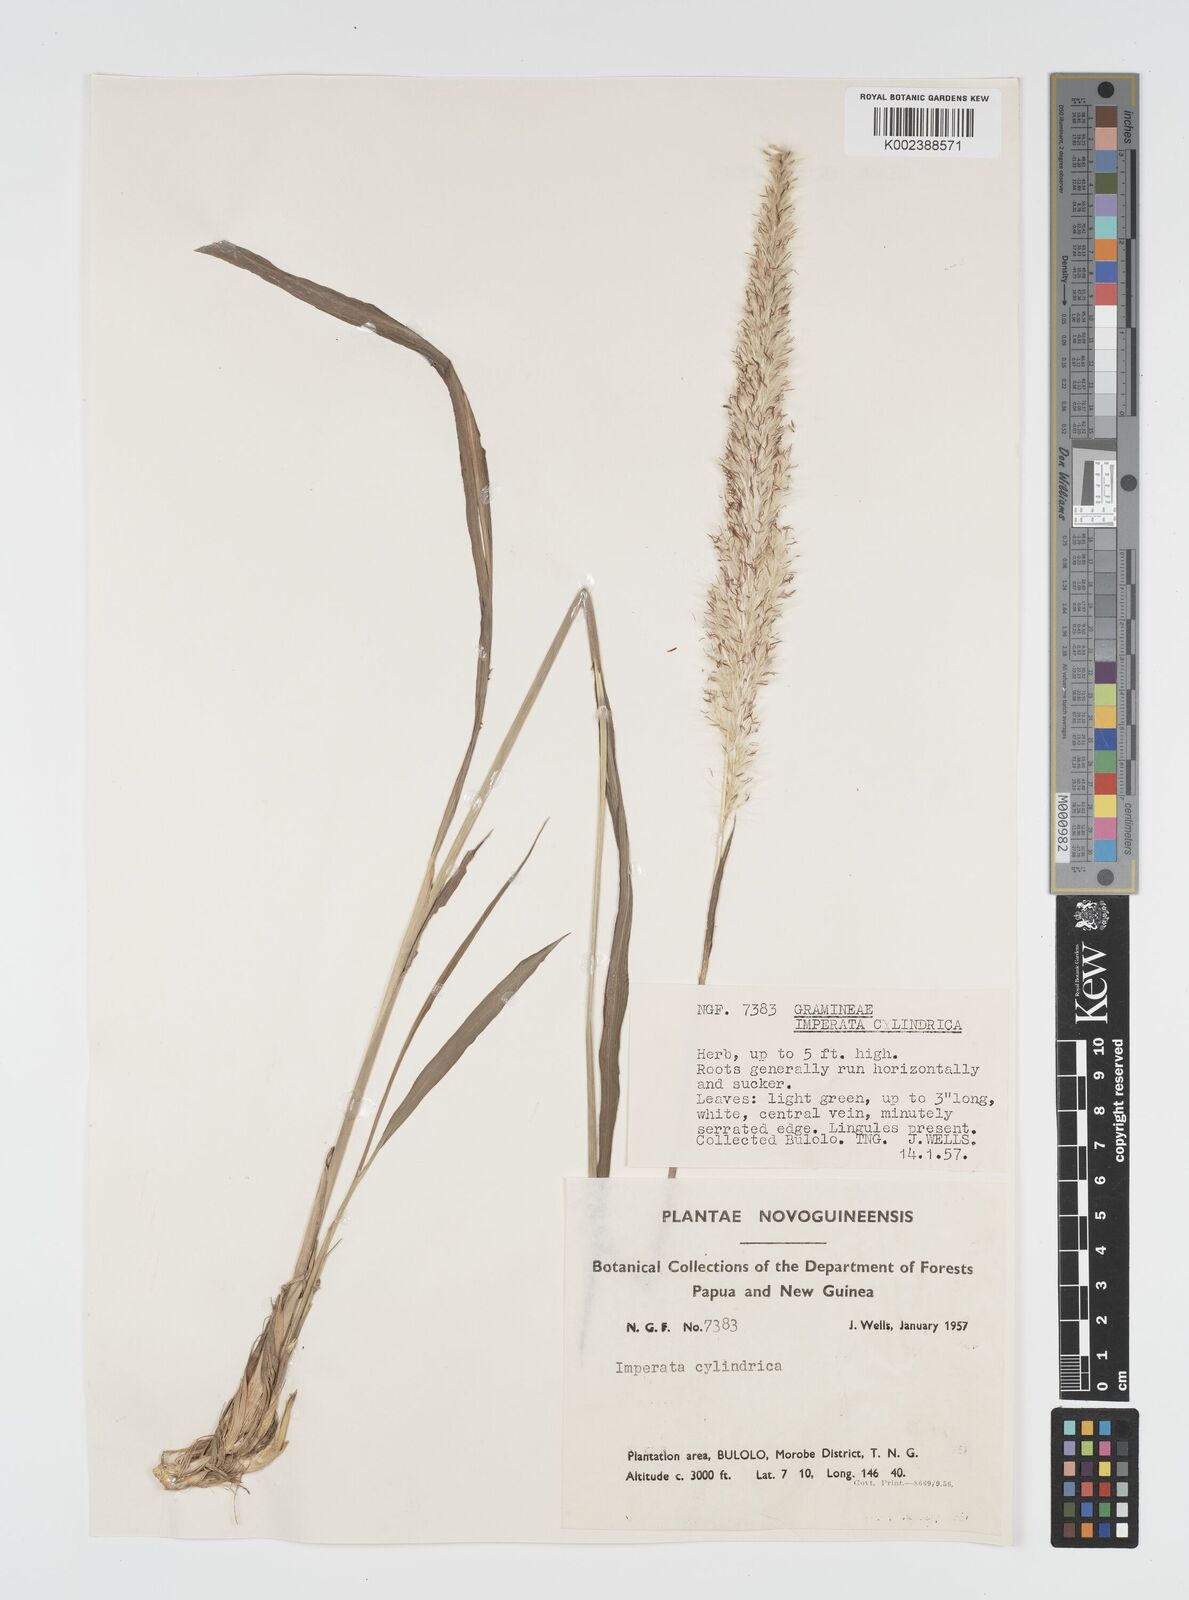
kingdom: Plantae
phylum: Tracheophyta
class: Liliopsida
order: Poales
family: Poaceae
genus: Imperata
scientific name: Imperata cylindrica
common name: Cogongrass
